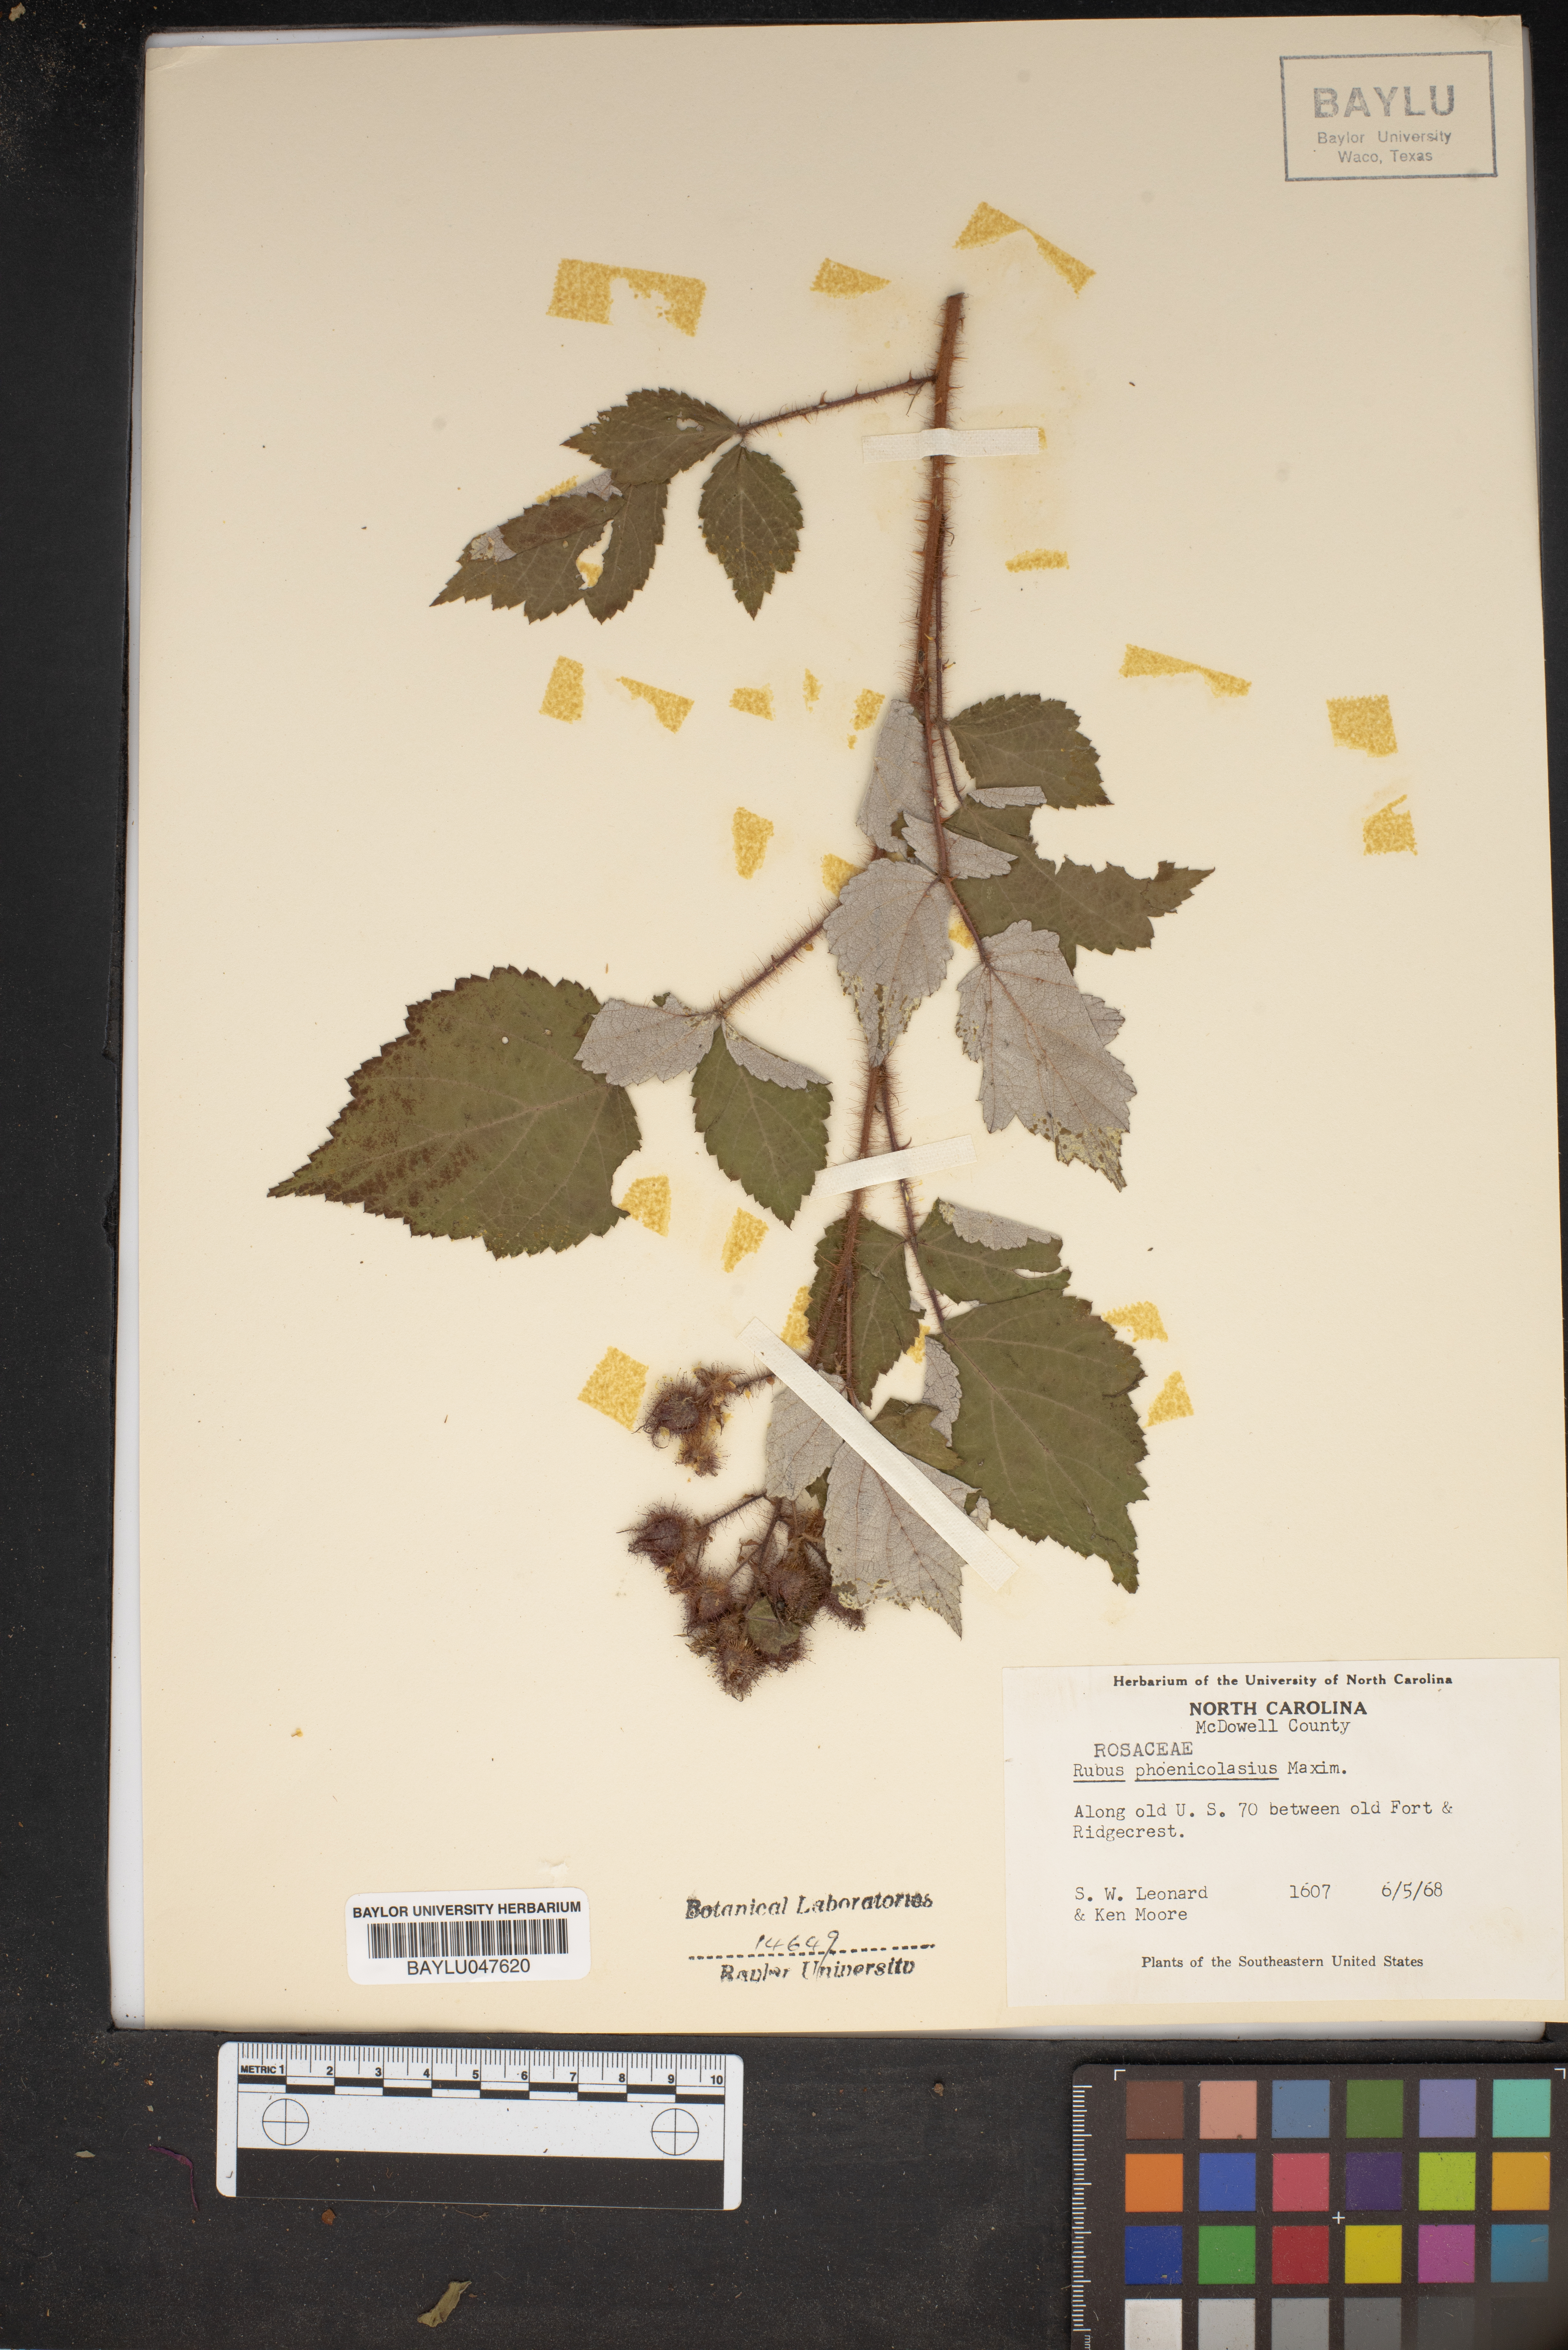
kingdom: Plantae
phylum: Tracheophyta
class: Magnoliopsida
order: Rosales
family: Rosaceae
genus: Rubus
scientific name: Rubus phoenicolasius
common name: Japanese wineberry
